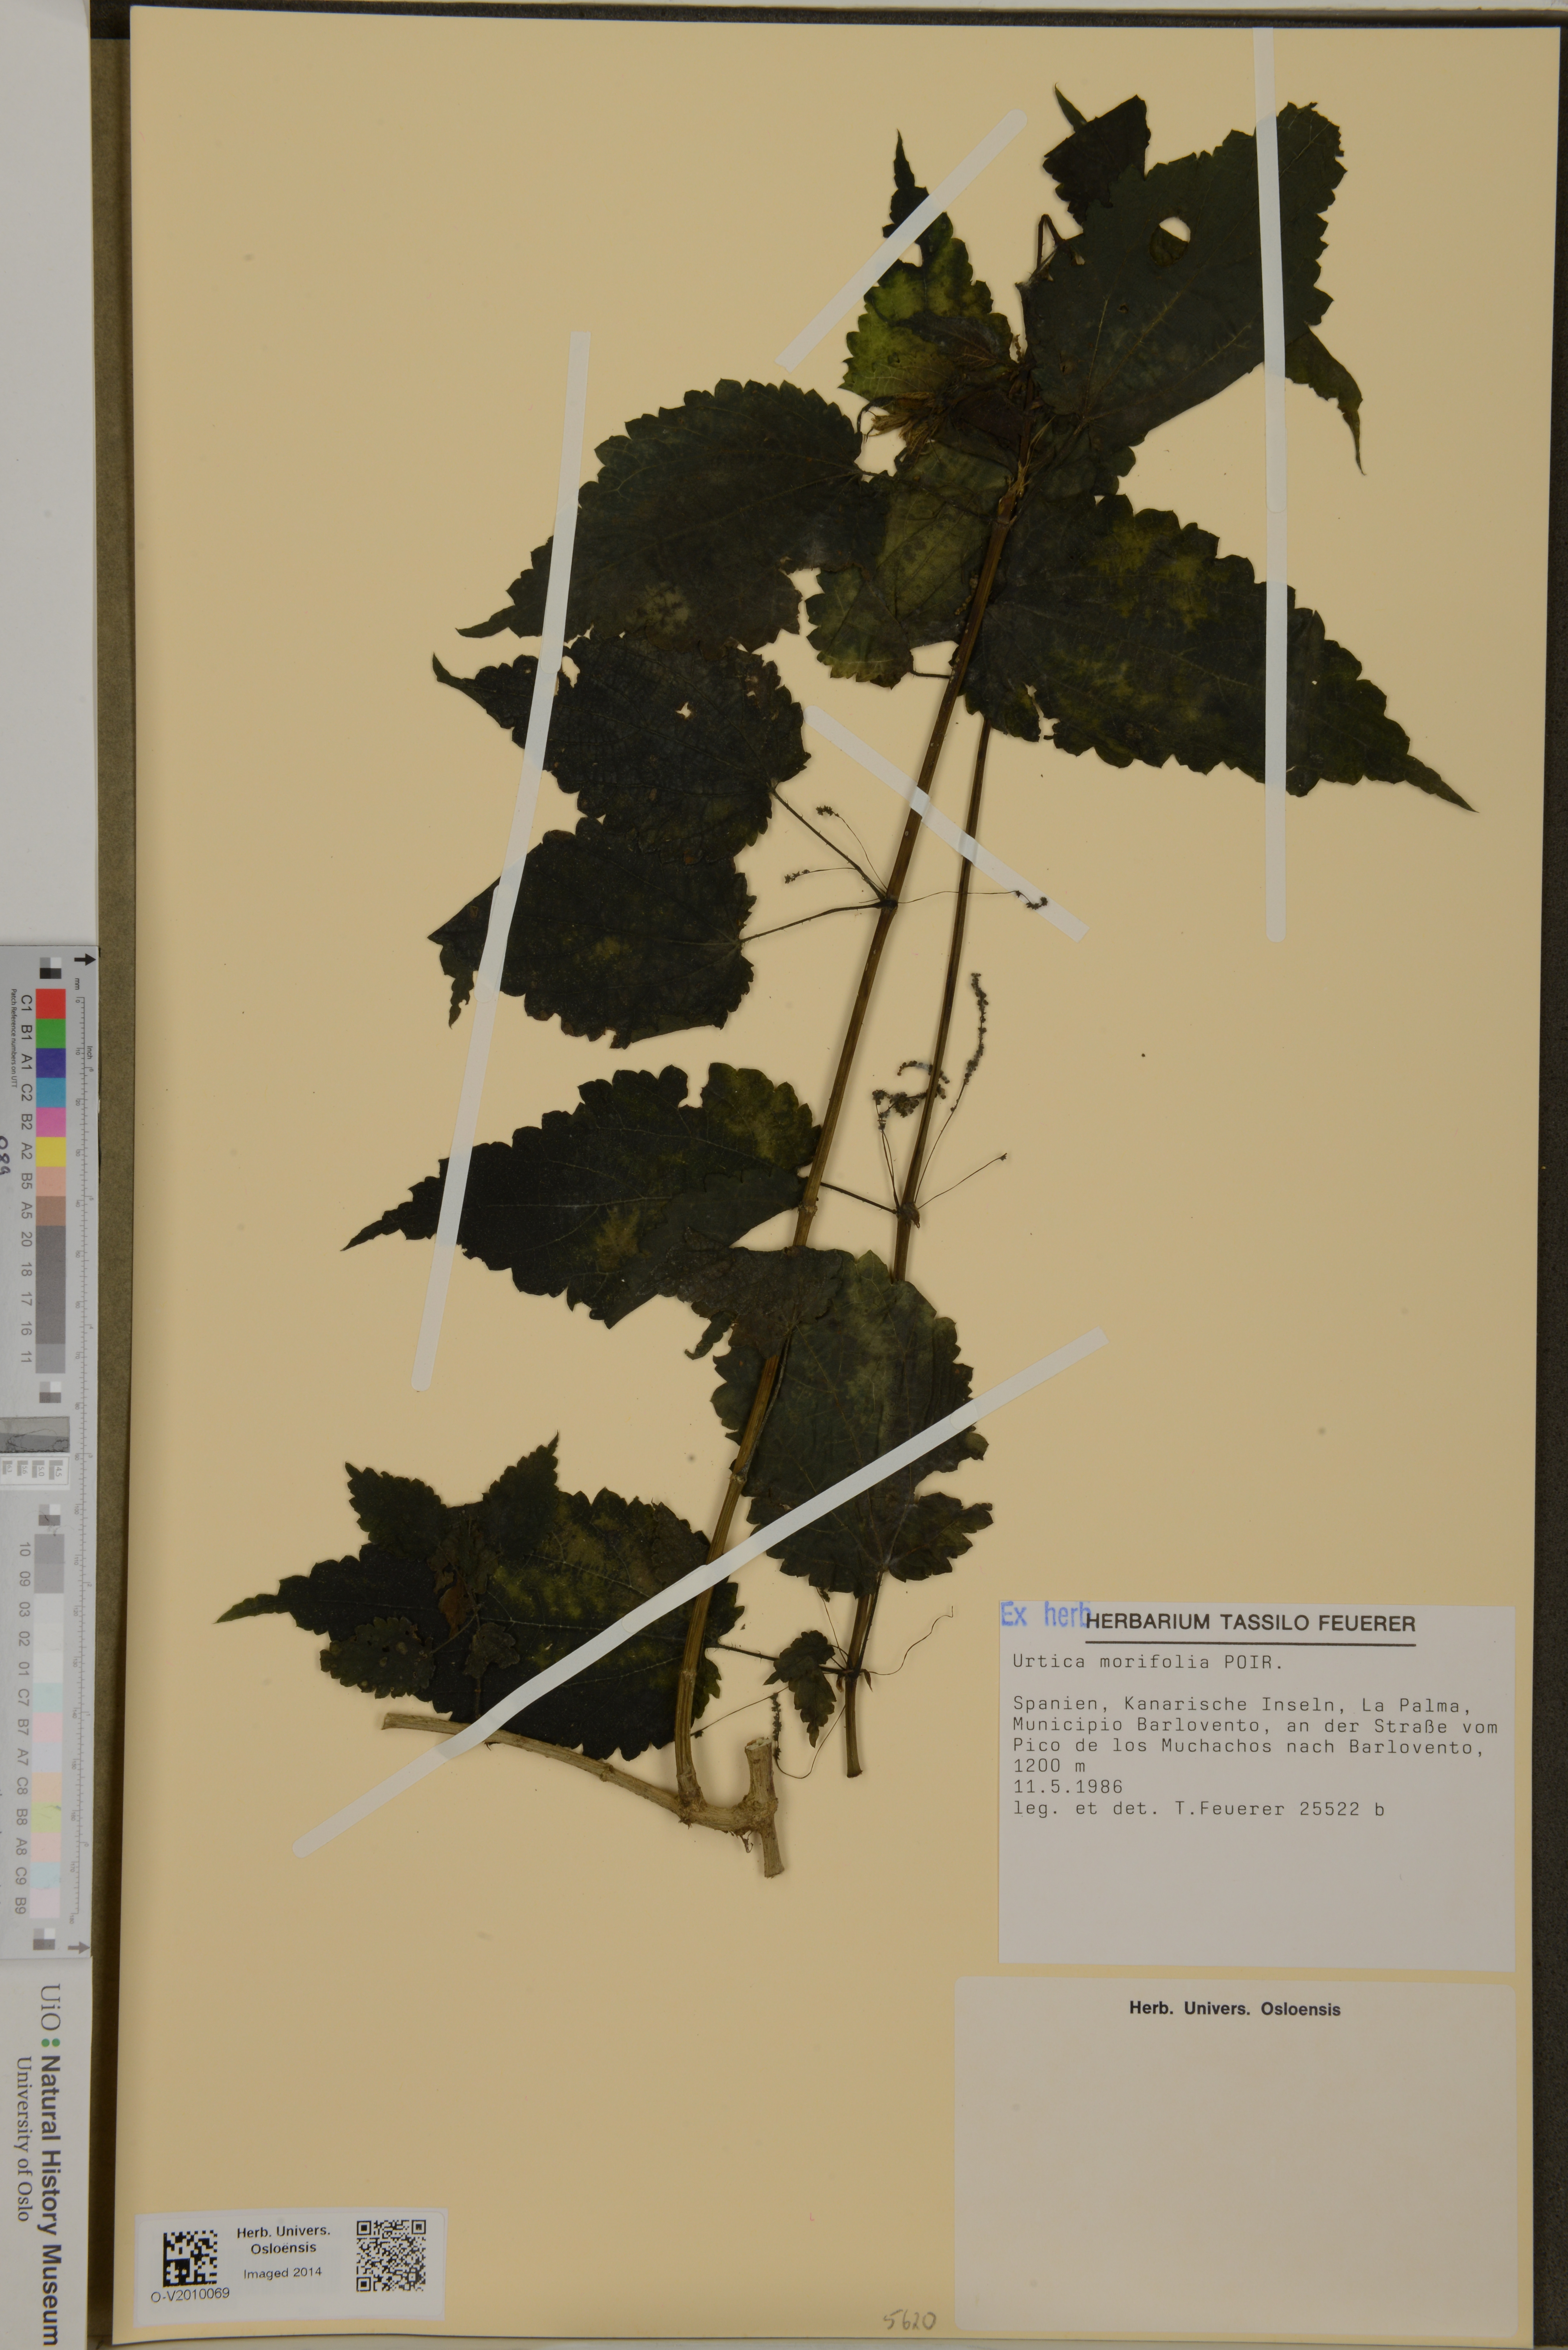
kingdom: Plantae
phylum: Tracheophyta
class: Magnoliopsida
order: Rosales
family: Urticaceae
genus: Urtica
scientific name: Urtica morifolia
